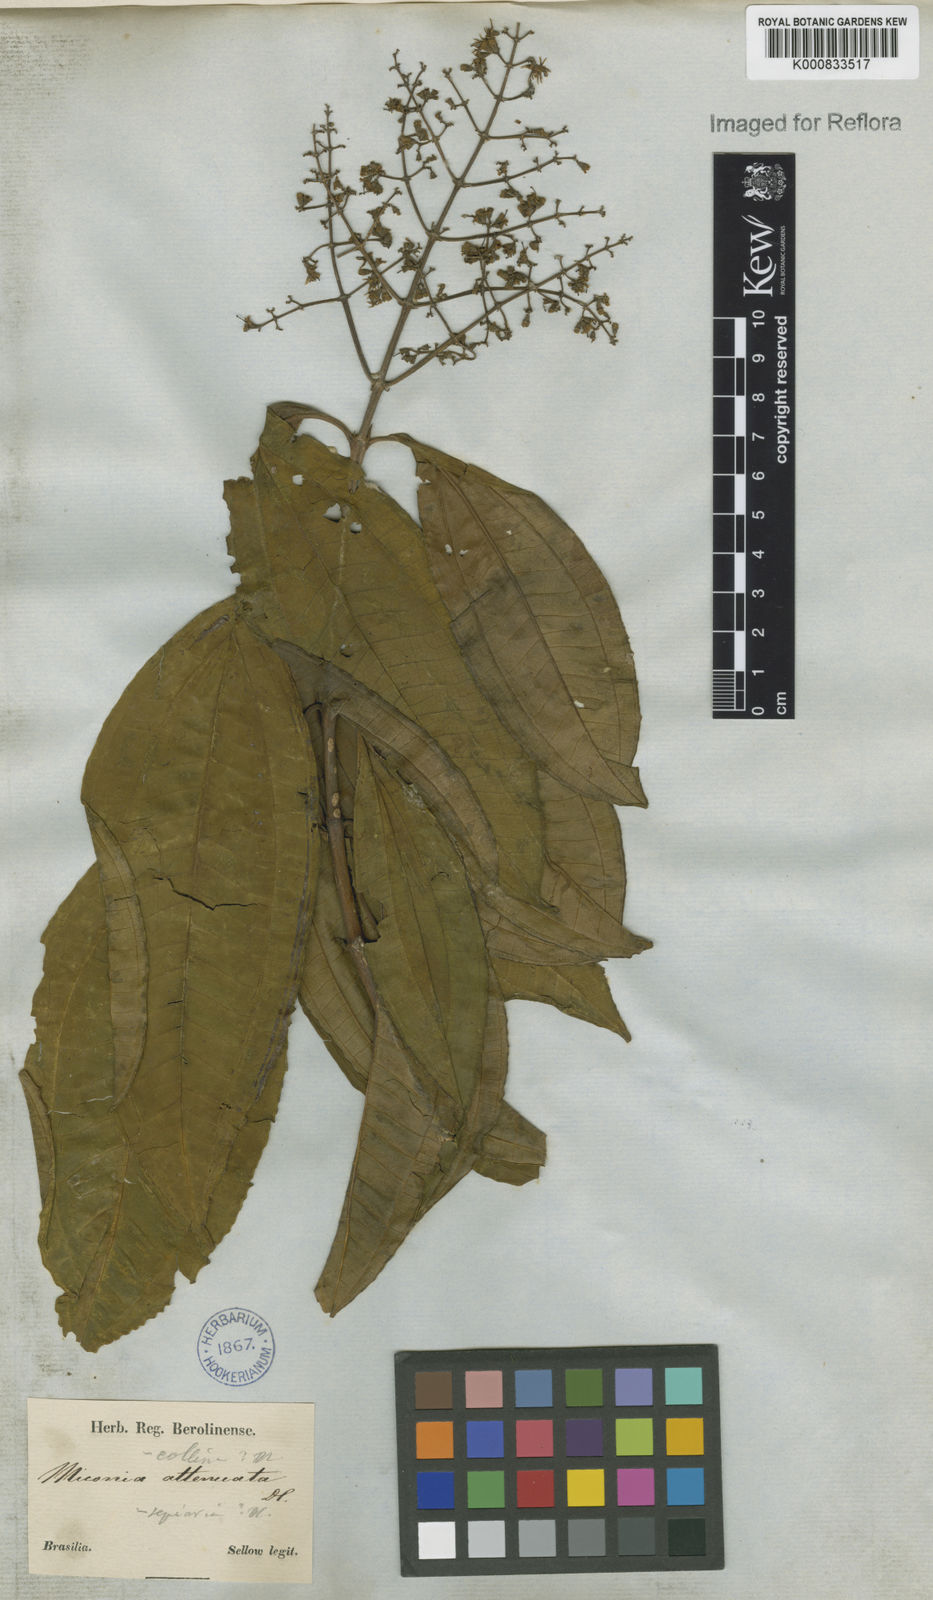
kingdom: Plantae
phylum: Tracheophyta
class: Magnoliopsida
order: Myrtales
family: Melastomataceae
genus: Miconia
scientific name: Miconia prasina
